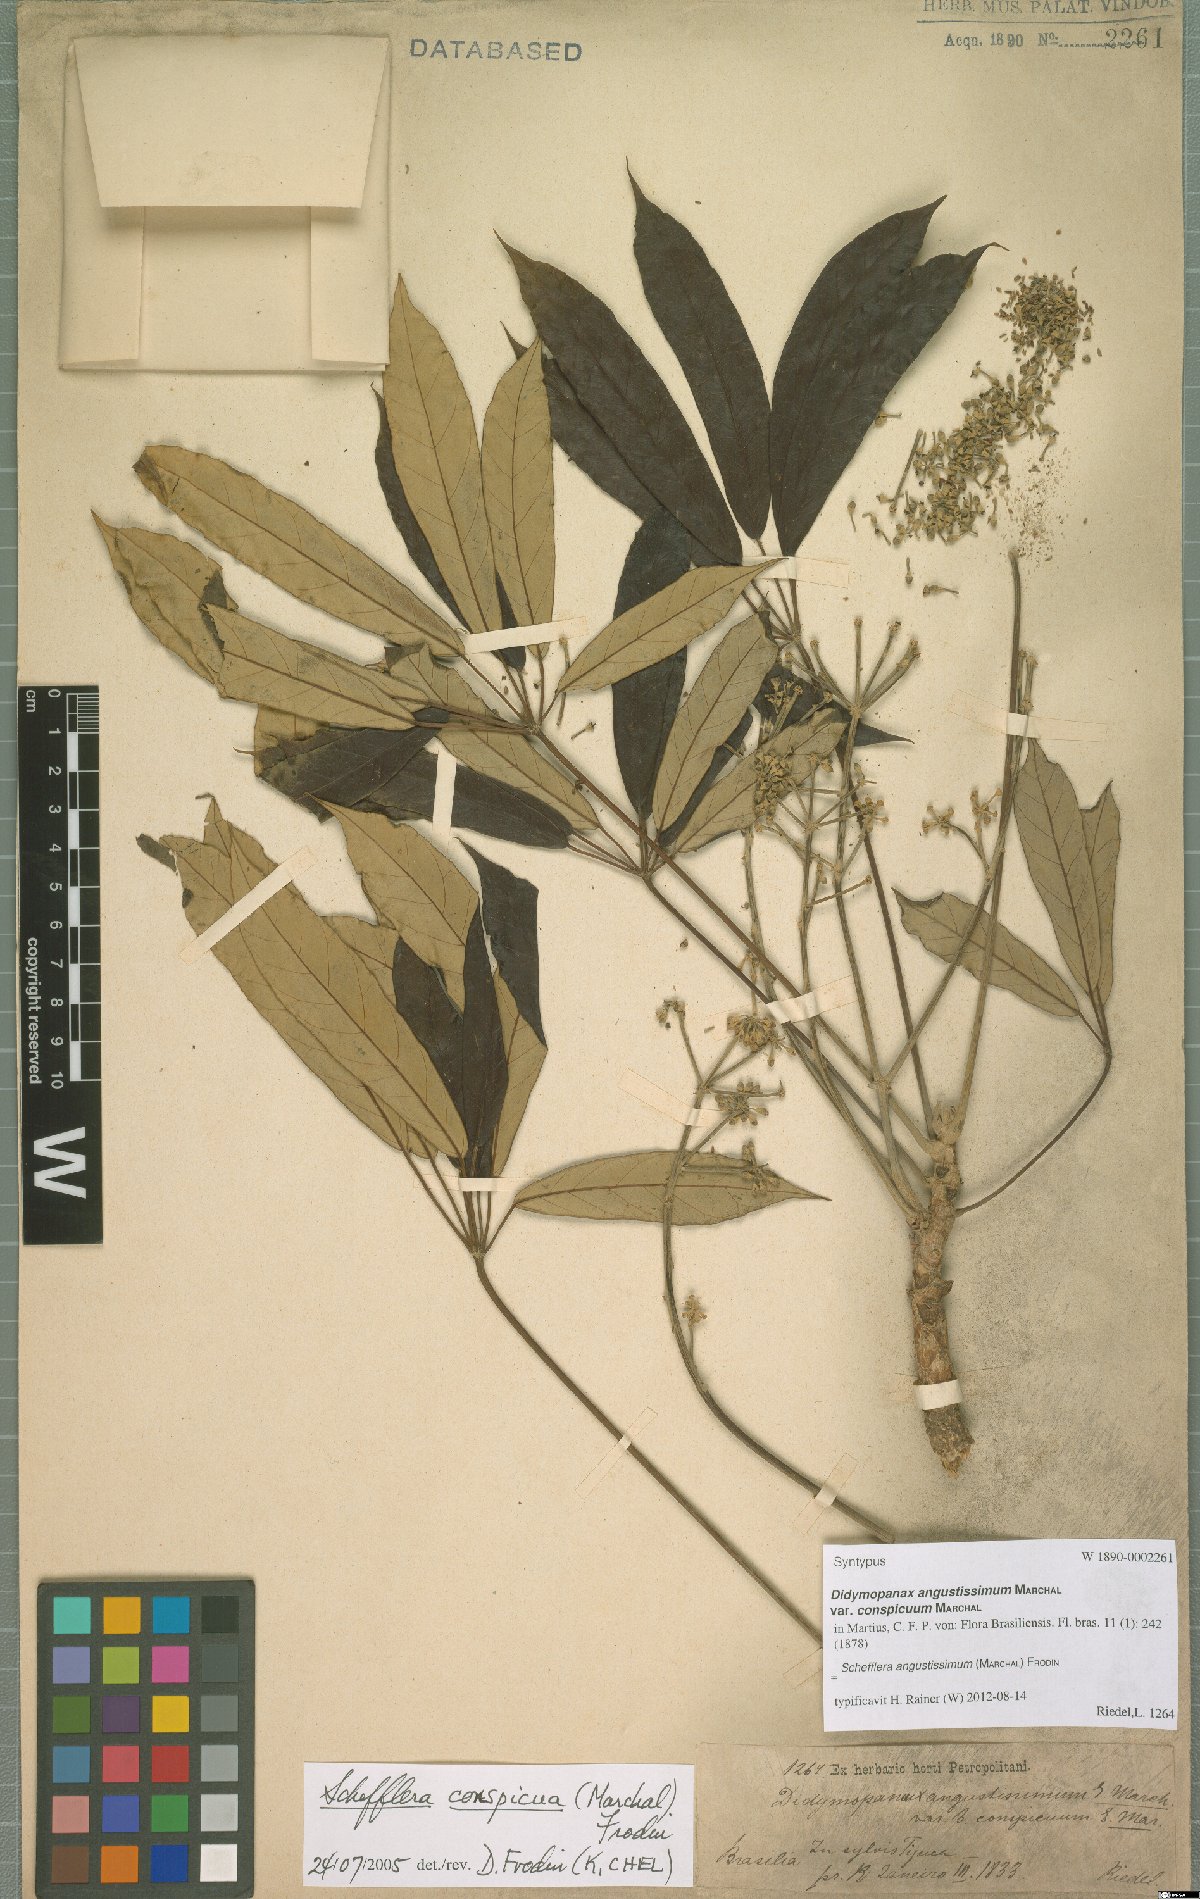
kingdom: Plantae
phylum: Tracheophyta
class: Magnoliopsida
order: Apiales
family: Araliaceae
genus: Didymopanax
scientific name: Didymopanax angustissimus
